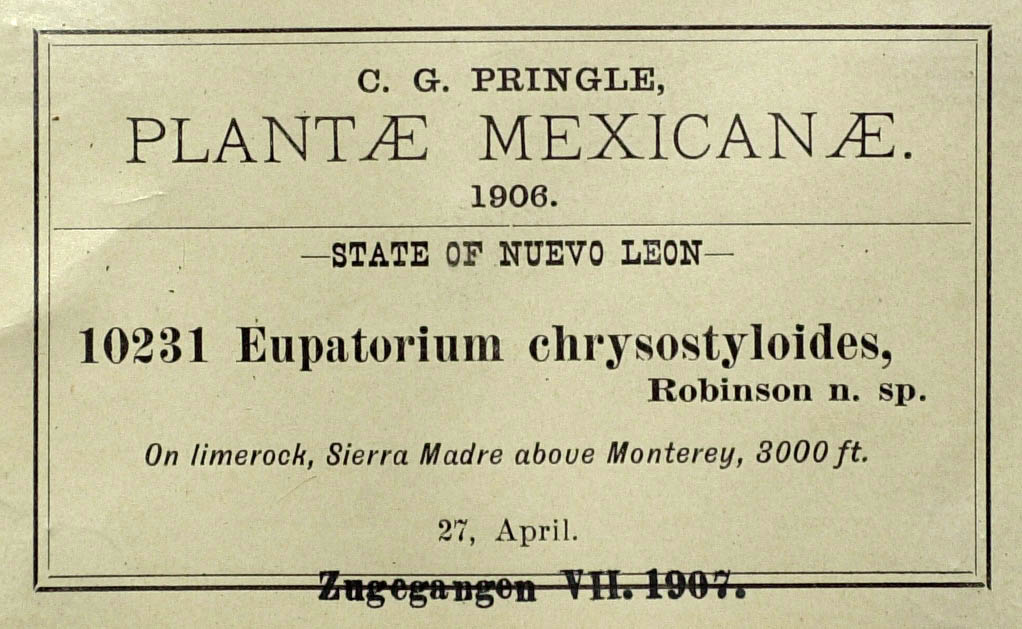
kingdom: Plantae
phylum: Tracheophyta
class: Magnoliopsida
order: Asterales
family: Asteraceae
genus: Flyriella
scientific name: Flyriella leonensis
